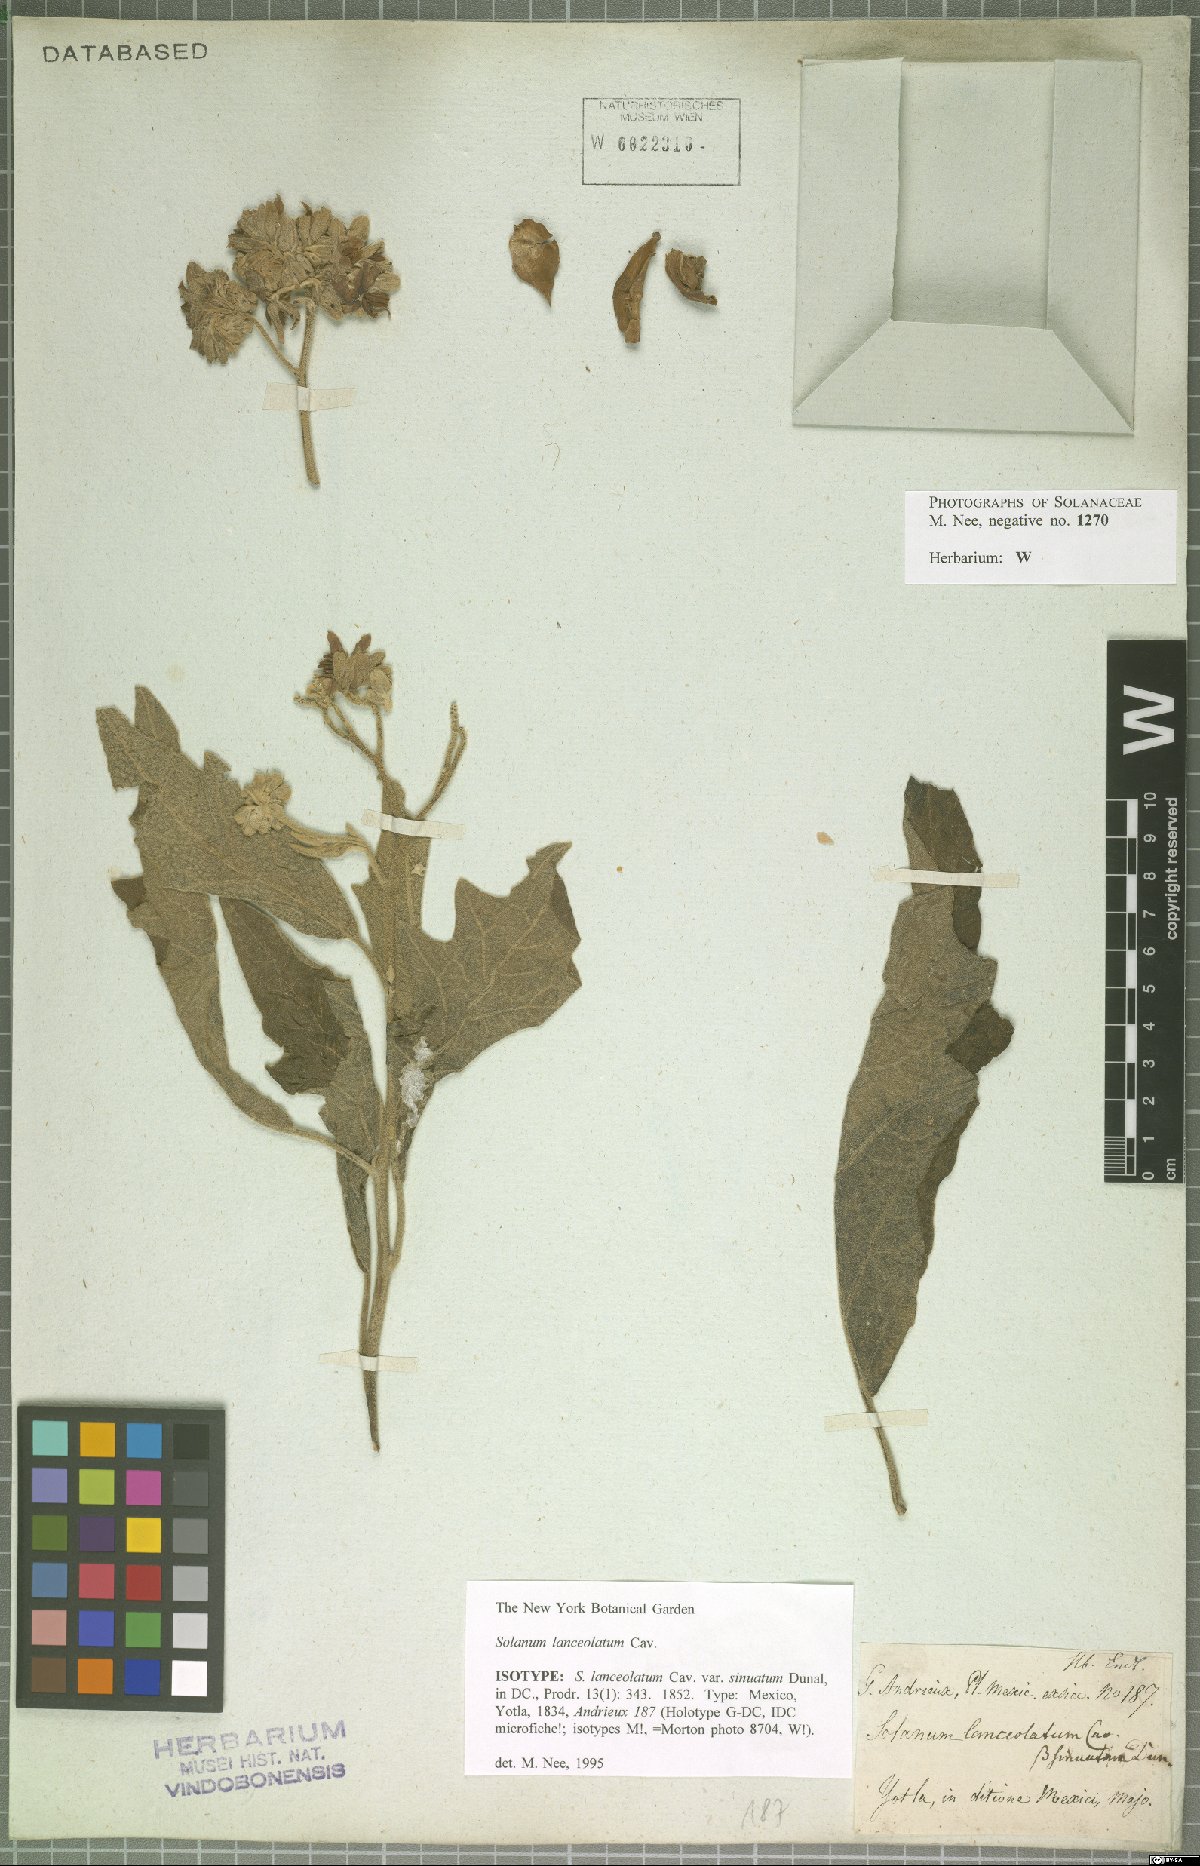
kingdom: Plantae
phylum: Tracheophyta
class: Magnoliopsida
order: Solanales
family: Solanaceae
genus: Solanum
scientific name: Solanum lanceolatum
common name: Orangeberry nightshade
